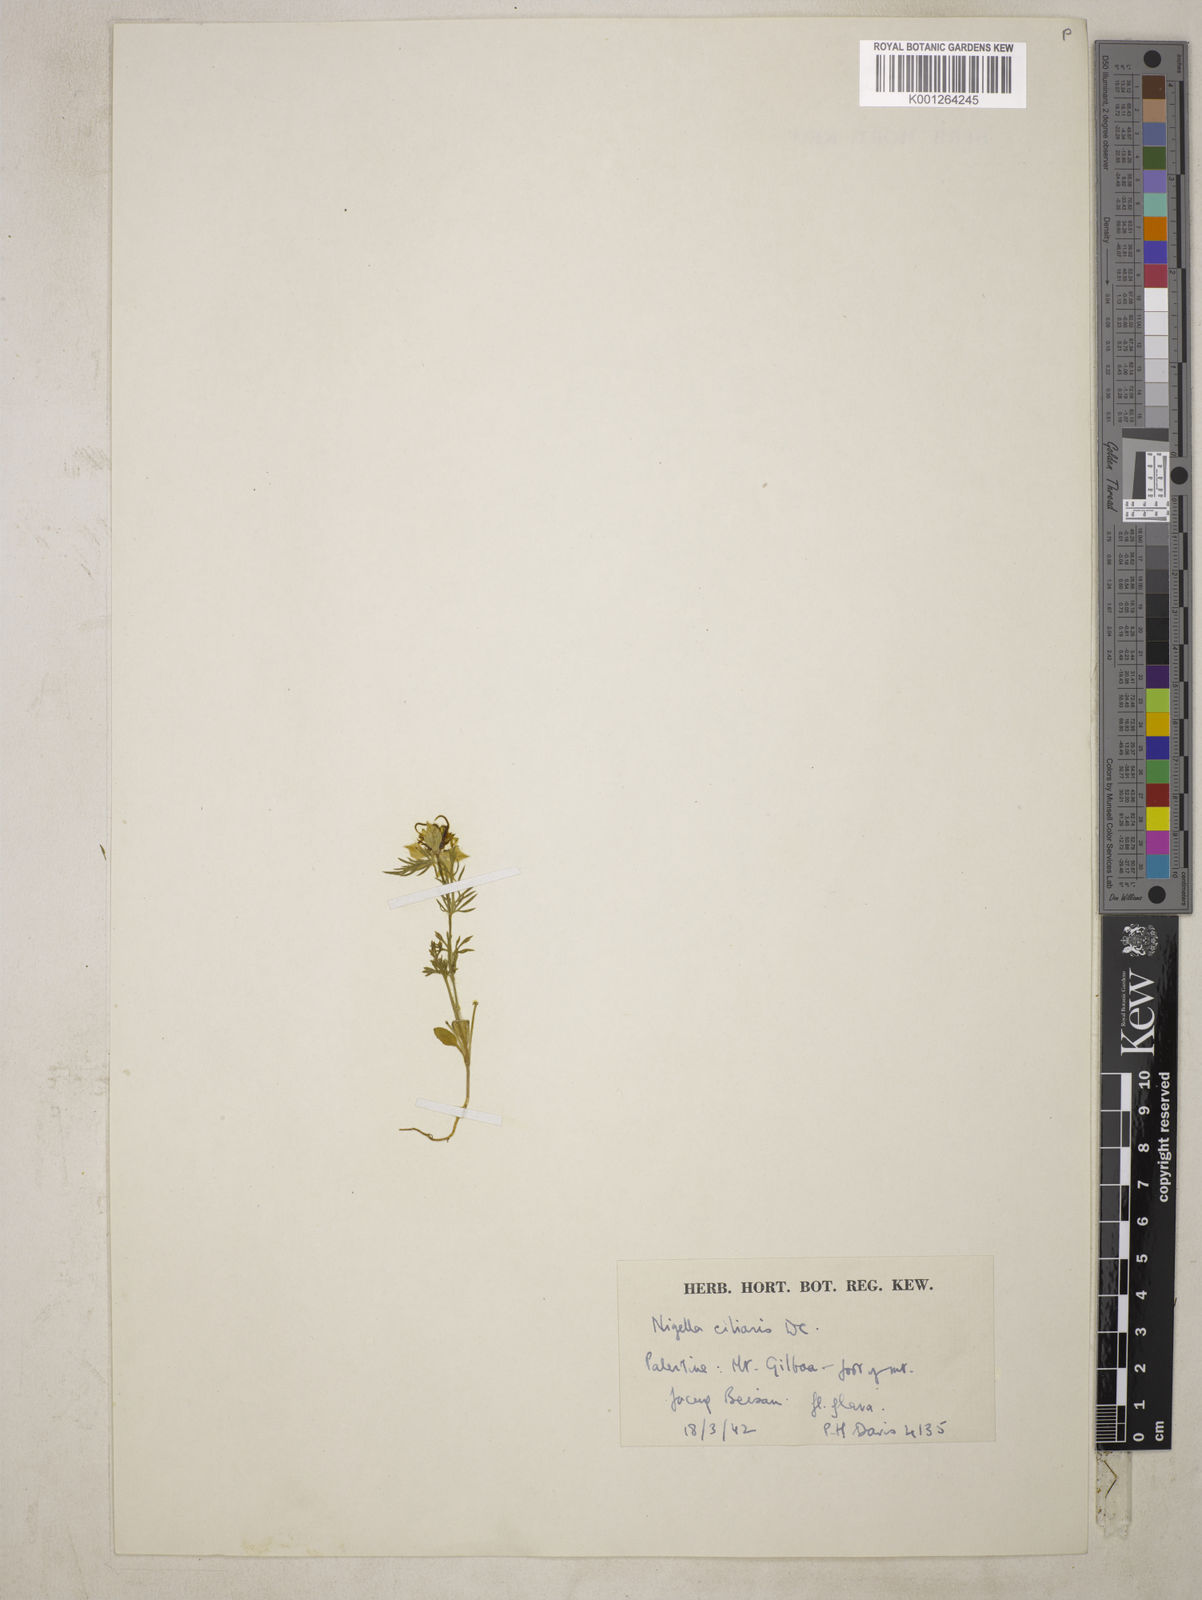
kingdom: Plantae
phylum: Tracheophyta
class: Magnoliopsida
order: Ranunculales
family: Ranunculaceae
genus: Nigella
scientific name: Nigella ciliaris
